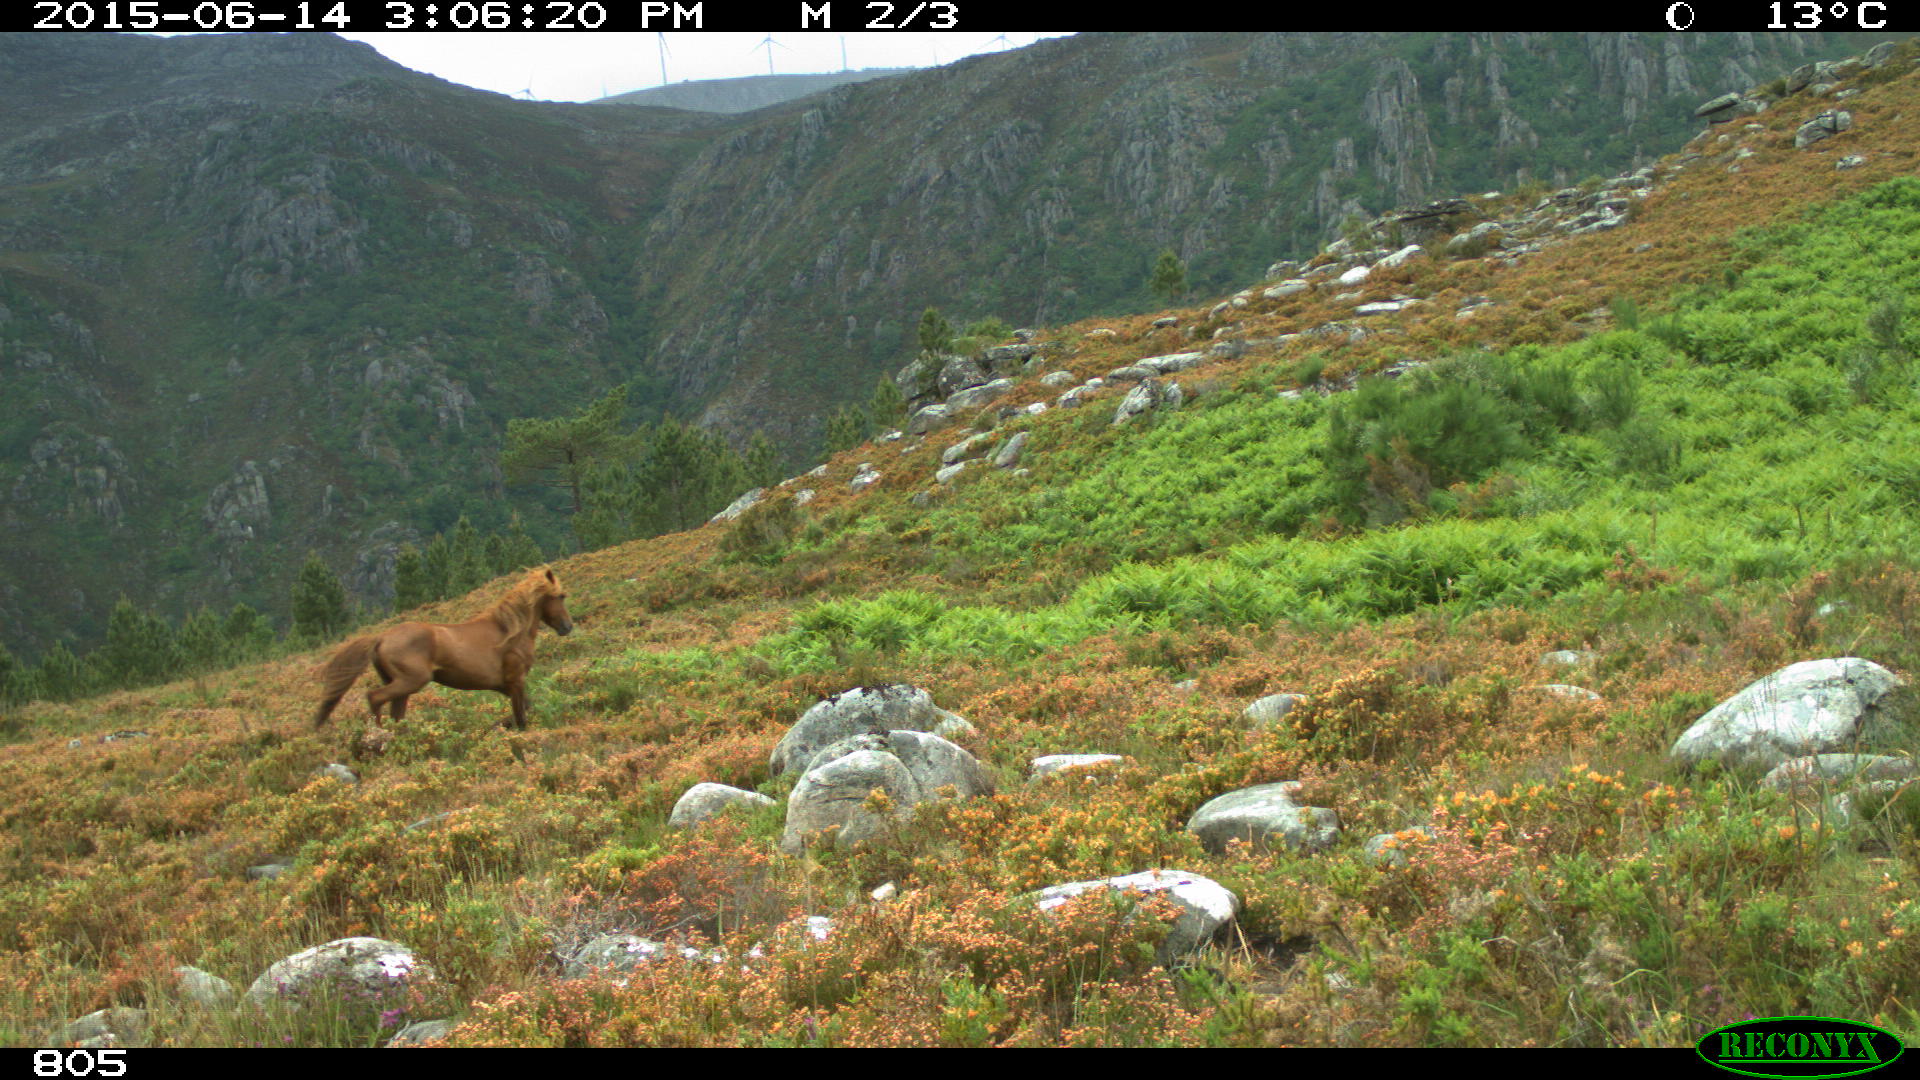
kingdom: Animalia
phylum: Chordata
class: Mammalia
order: Perissodactyla
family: Equidae
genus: Equus
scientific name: Equus caballus
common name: Horse
